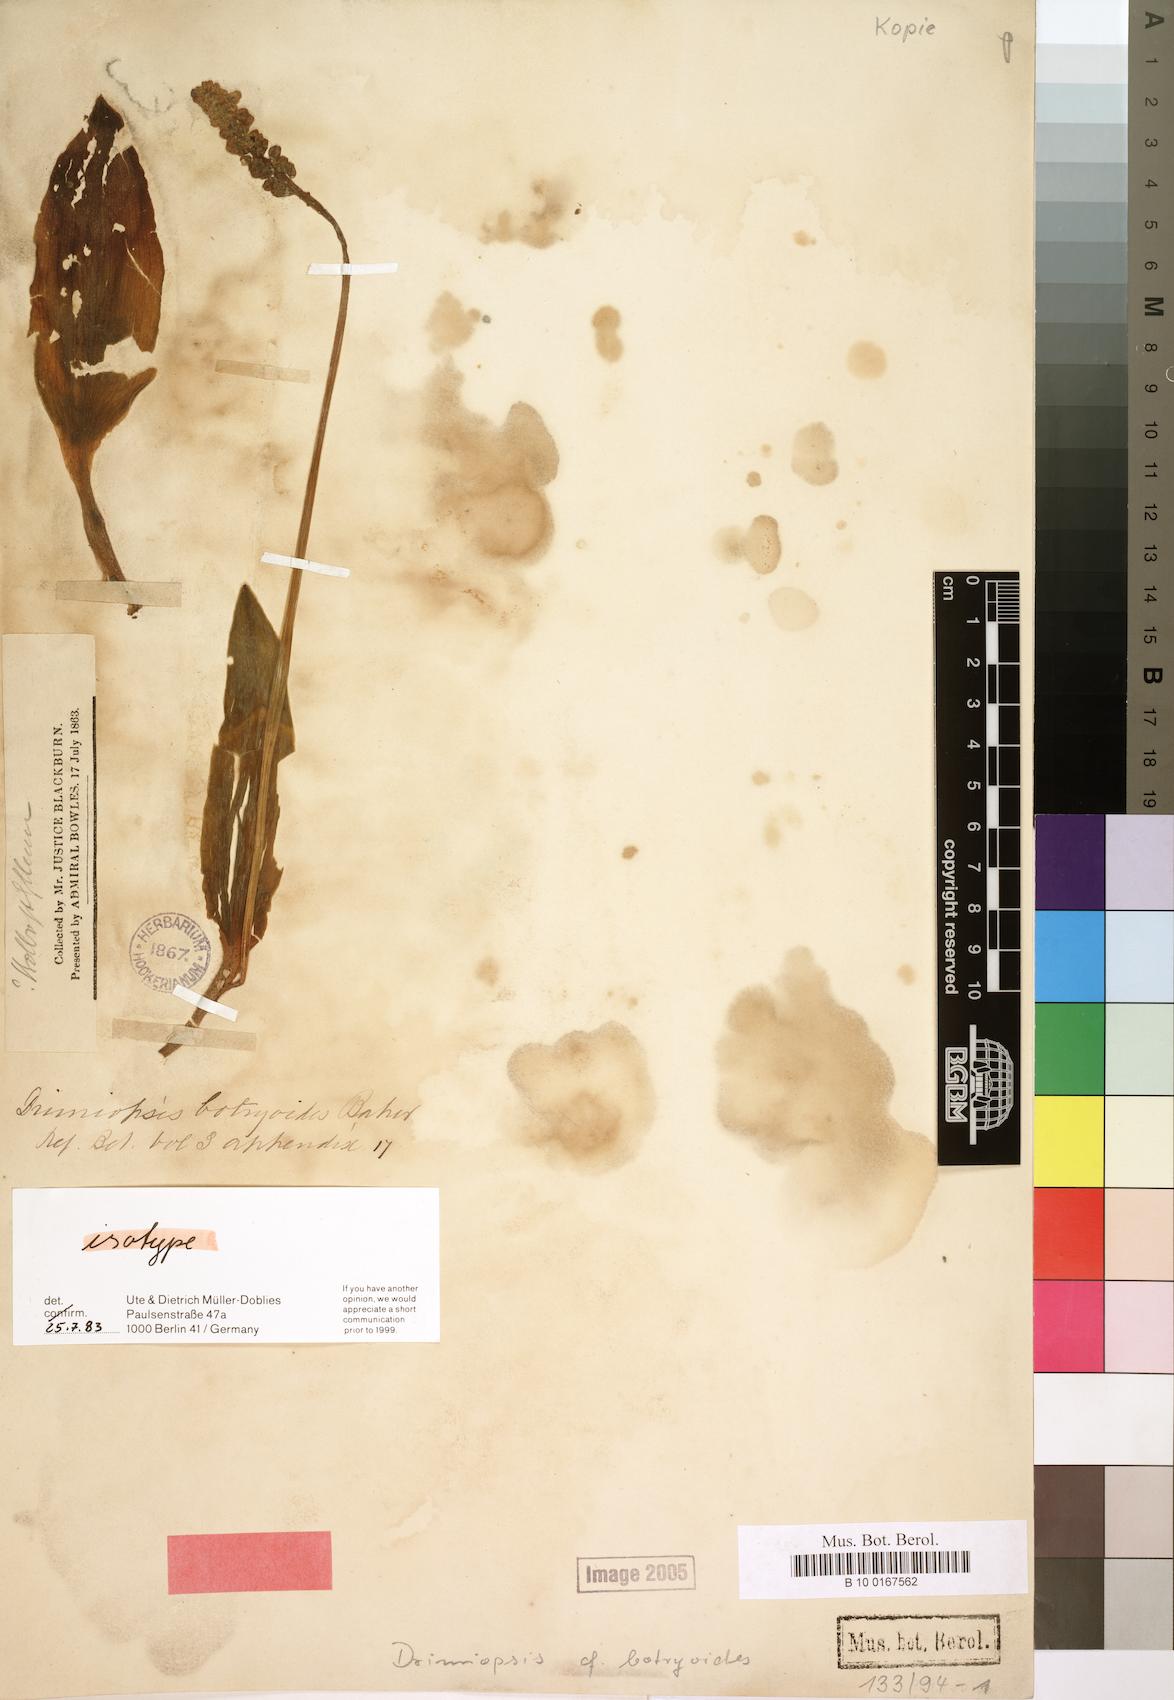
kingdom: Plantae
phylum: Tracheophyta
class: Liliopsida
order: Asparagales
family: Asparagaceae
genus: Drimiopsis
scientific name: Drimiopsis botryoides
